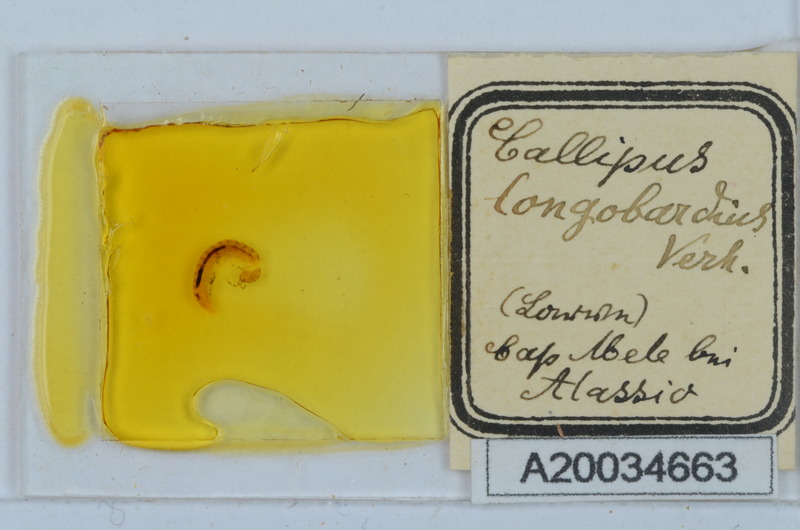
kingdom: Animalia
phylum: Arthropoda
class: Arachnida
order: Sarcoptiformes
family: Scheloribatidae
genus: Scheloribates
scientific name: Scheloribates
